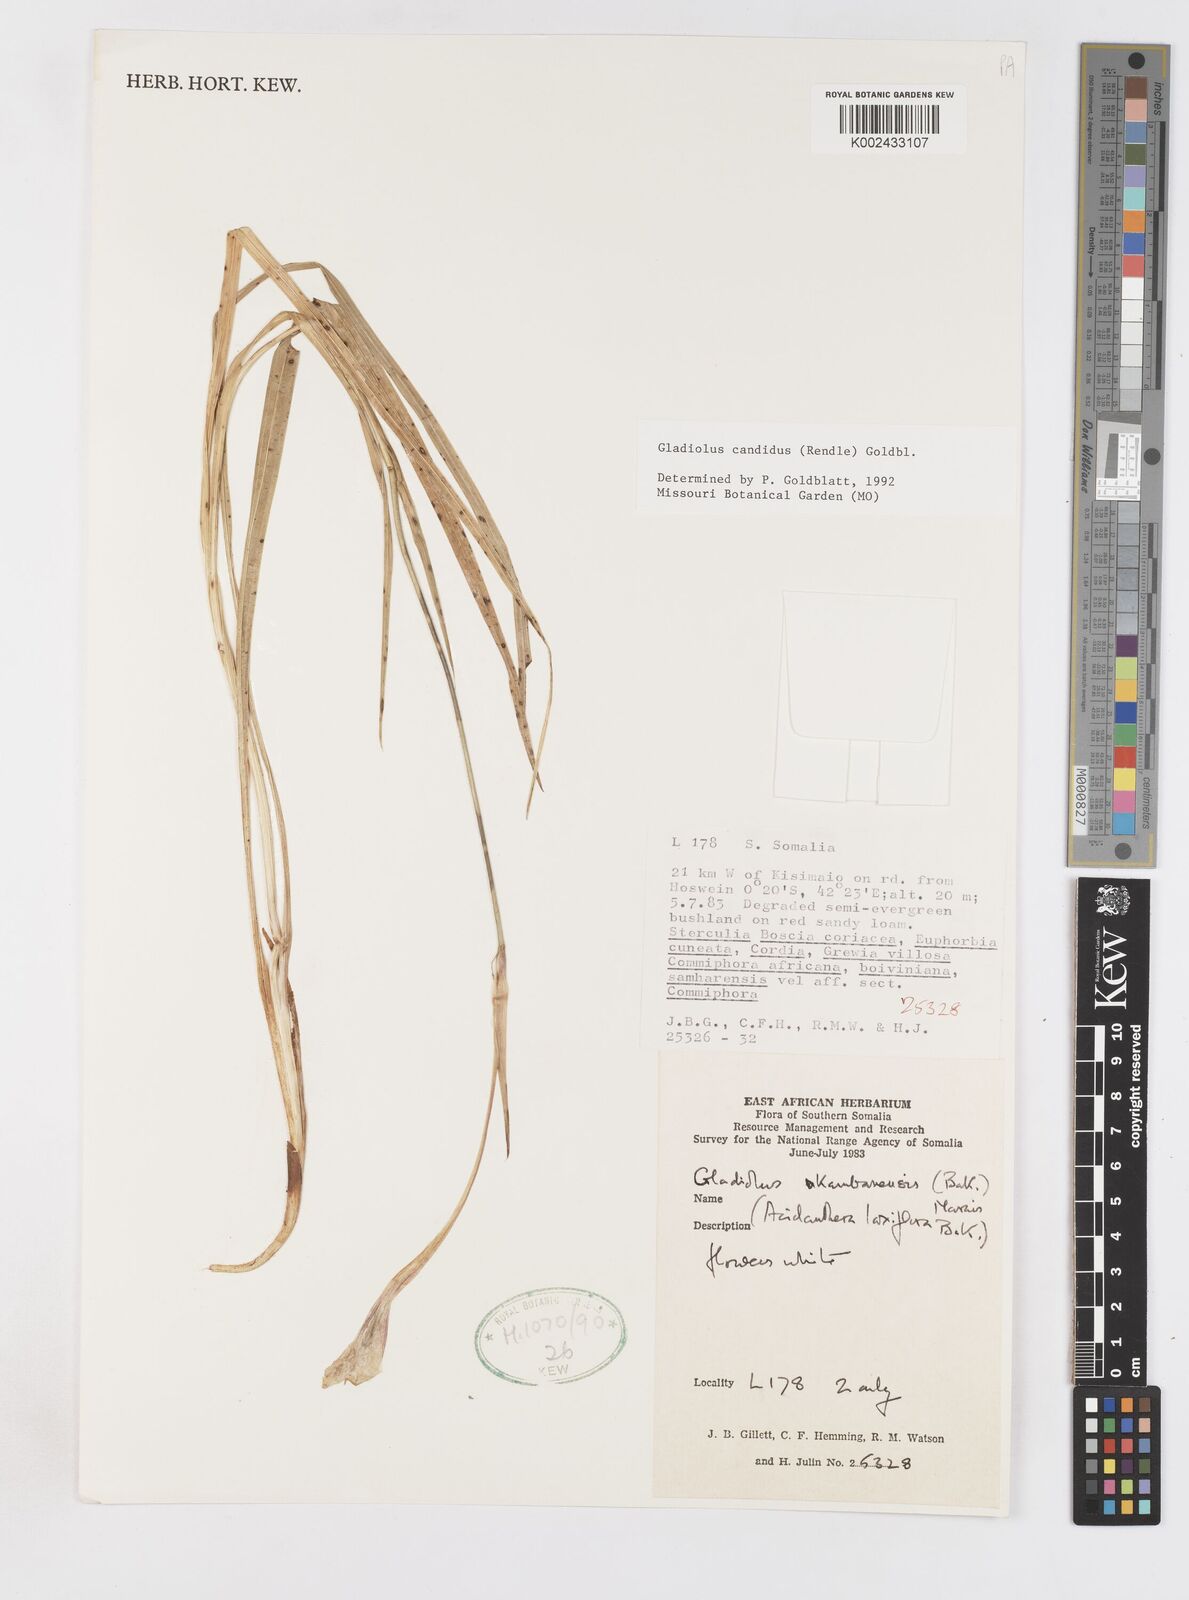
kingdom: Plantae
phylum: Tracheophyta
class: Liliopsida
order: Asparagales
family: Iridaceae
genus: Gladiolus
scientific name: Gladiolus candidus
